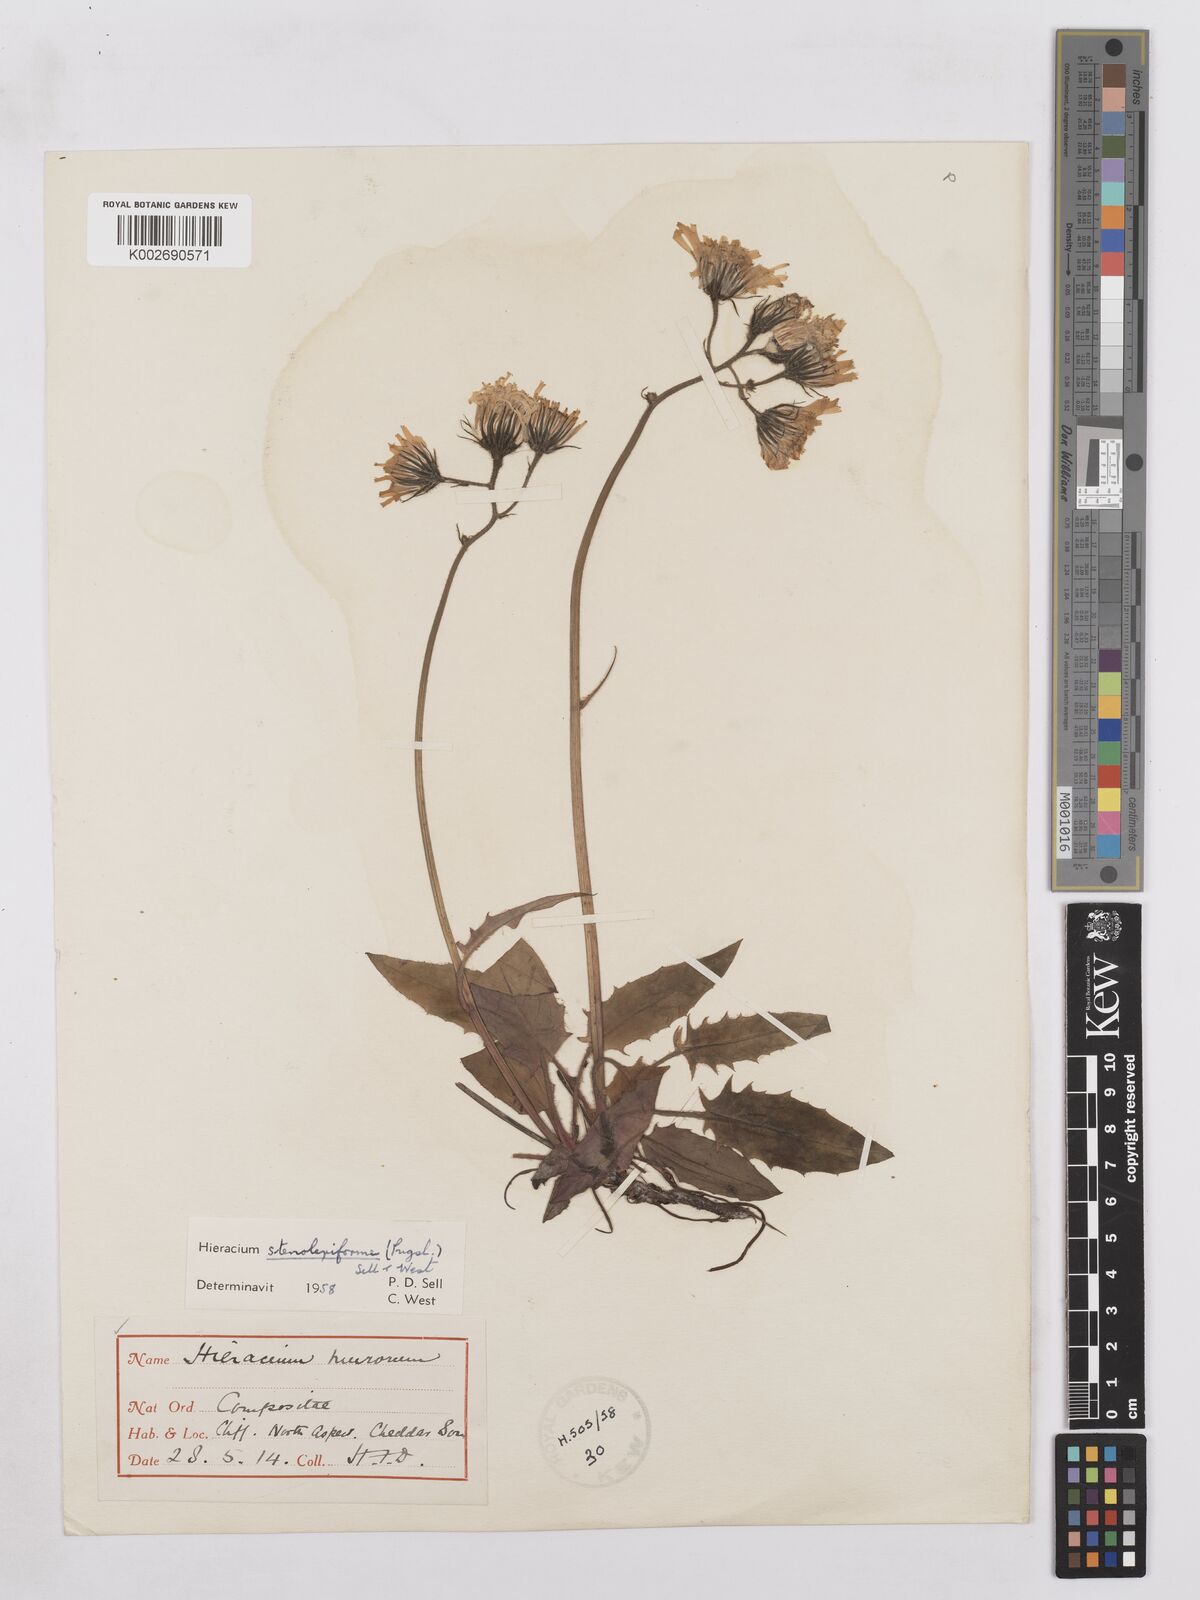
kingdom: Plantae
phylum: Tracheophyta
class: Magnoliopsida
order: Asterales
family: Asteraceae
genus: Hieracium
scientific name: Hieracium stenolepiforme
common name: Cheddar hawkweed
